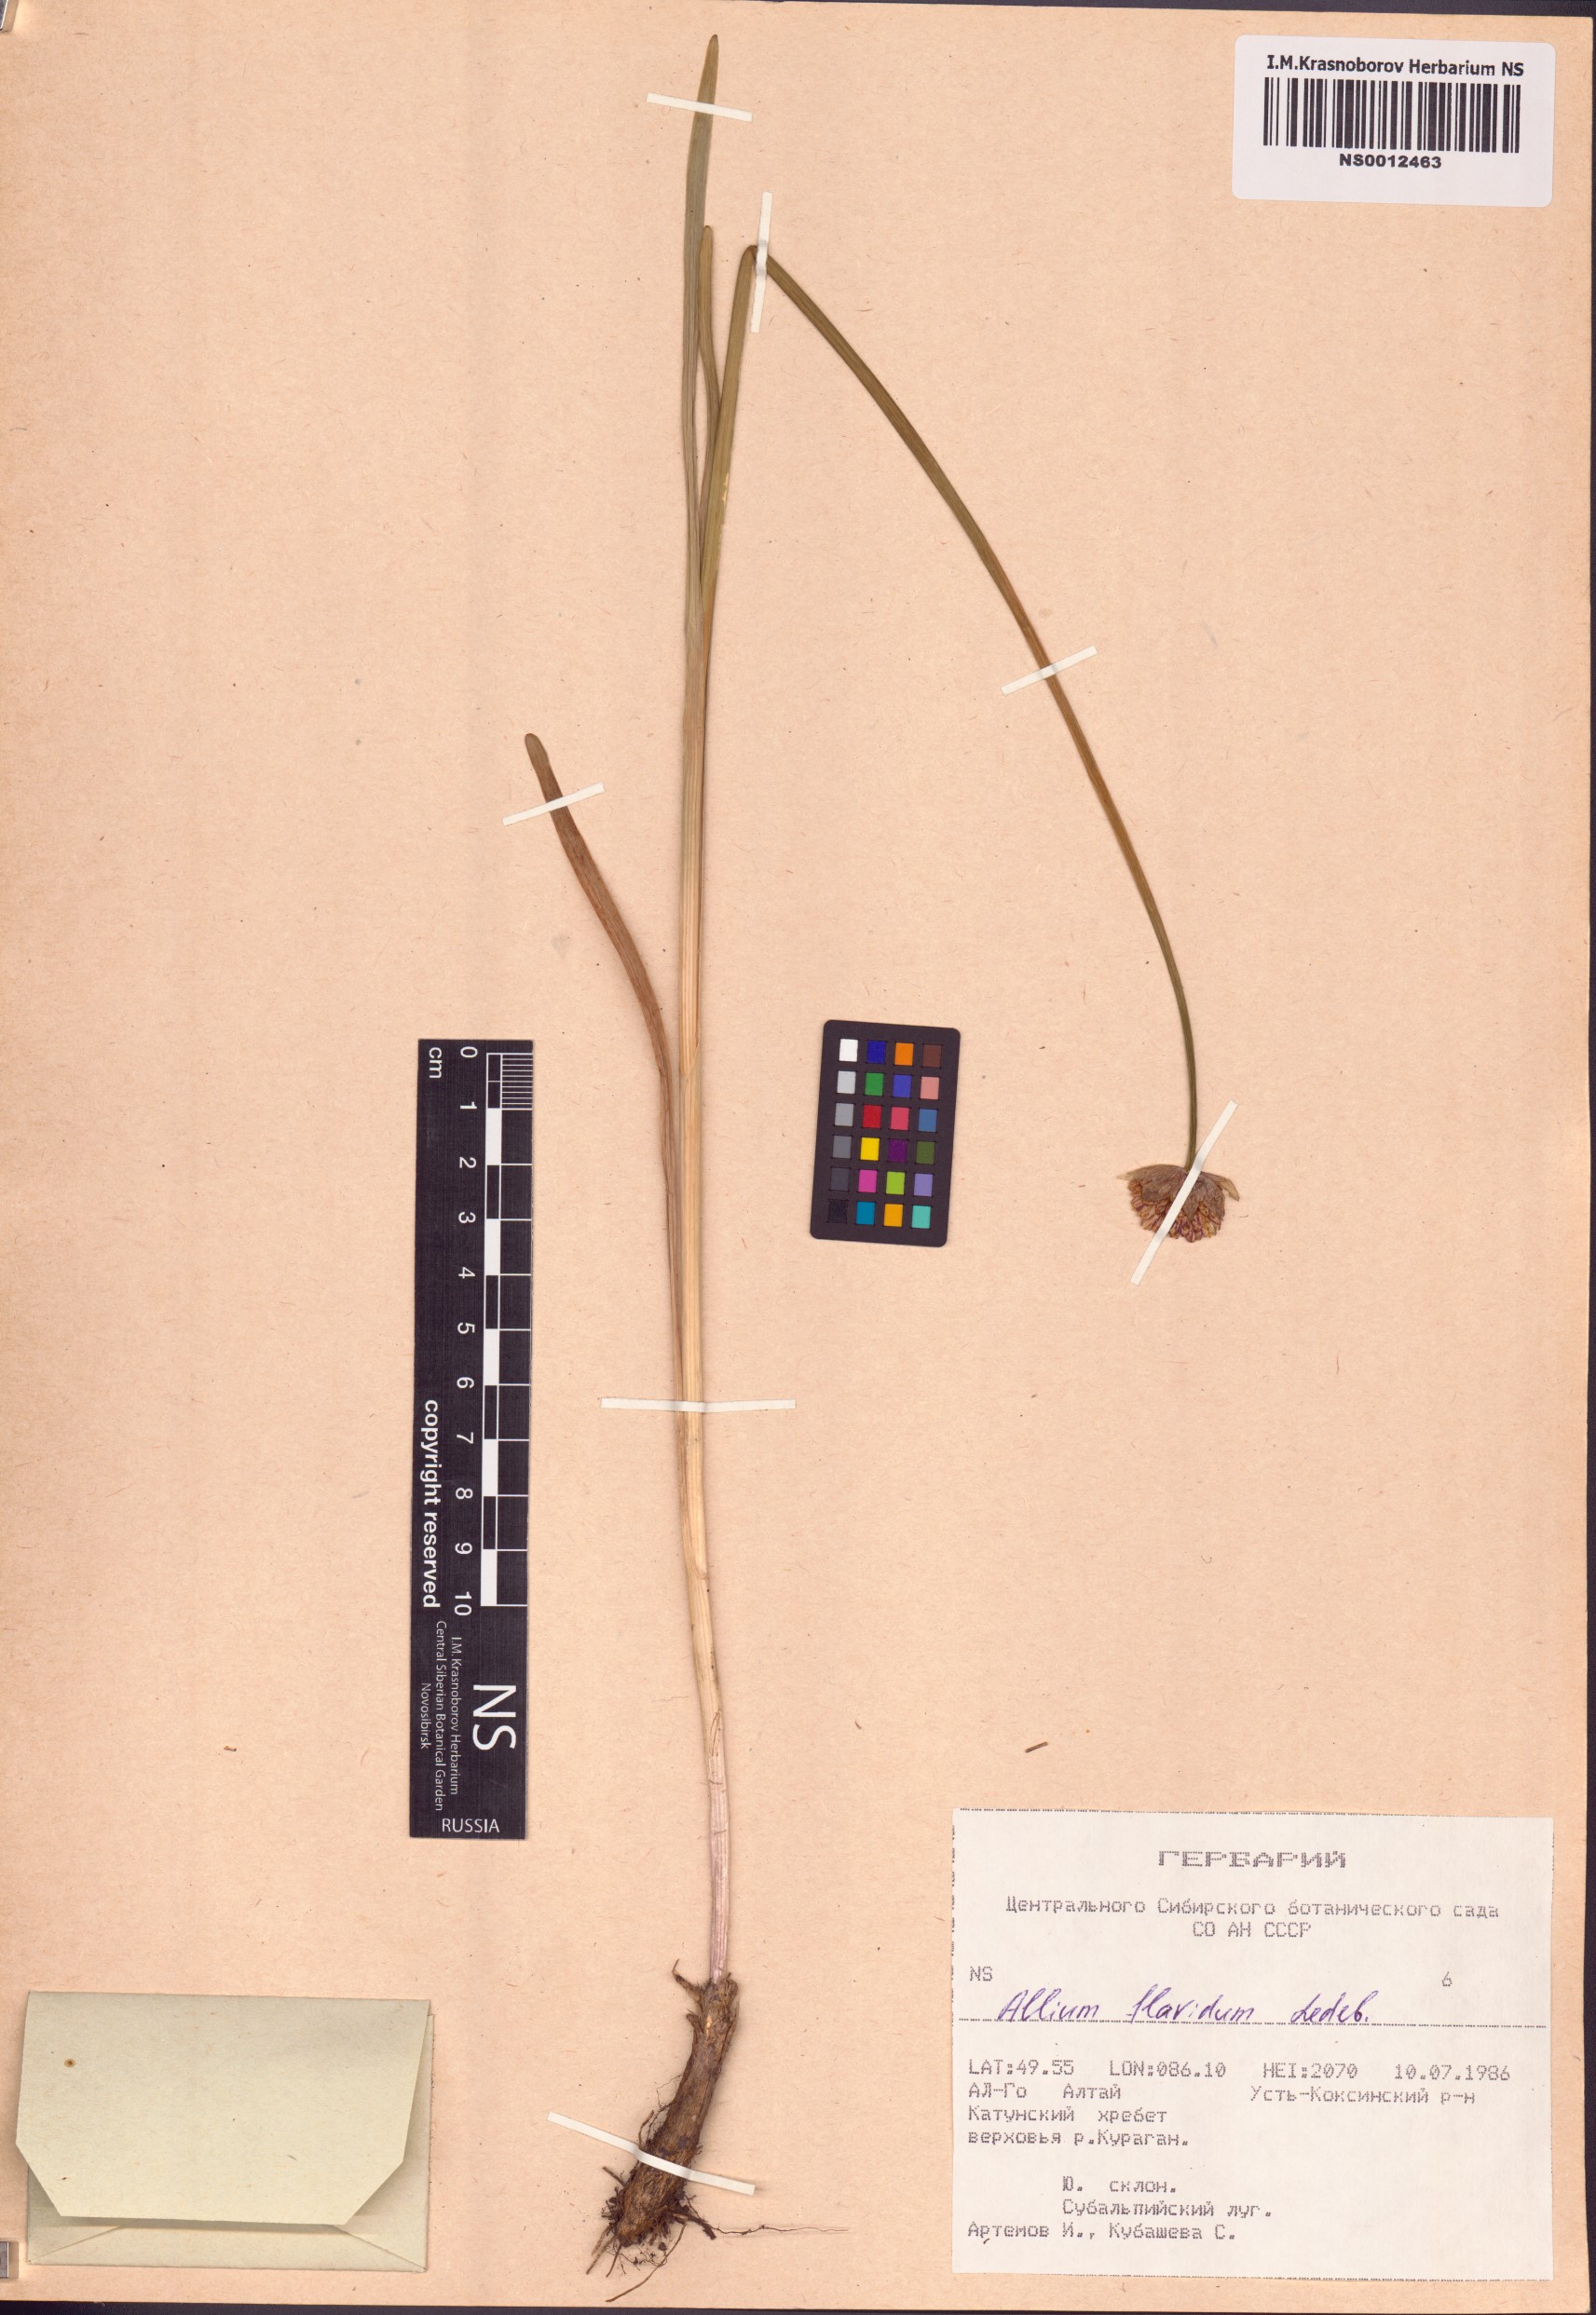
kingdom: Plantae
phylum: Tracheophyta
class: Liliopsida
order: Asparagales
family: Amaryllidaceae
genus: Allium
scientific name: Allium flavidum
